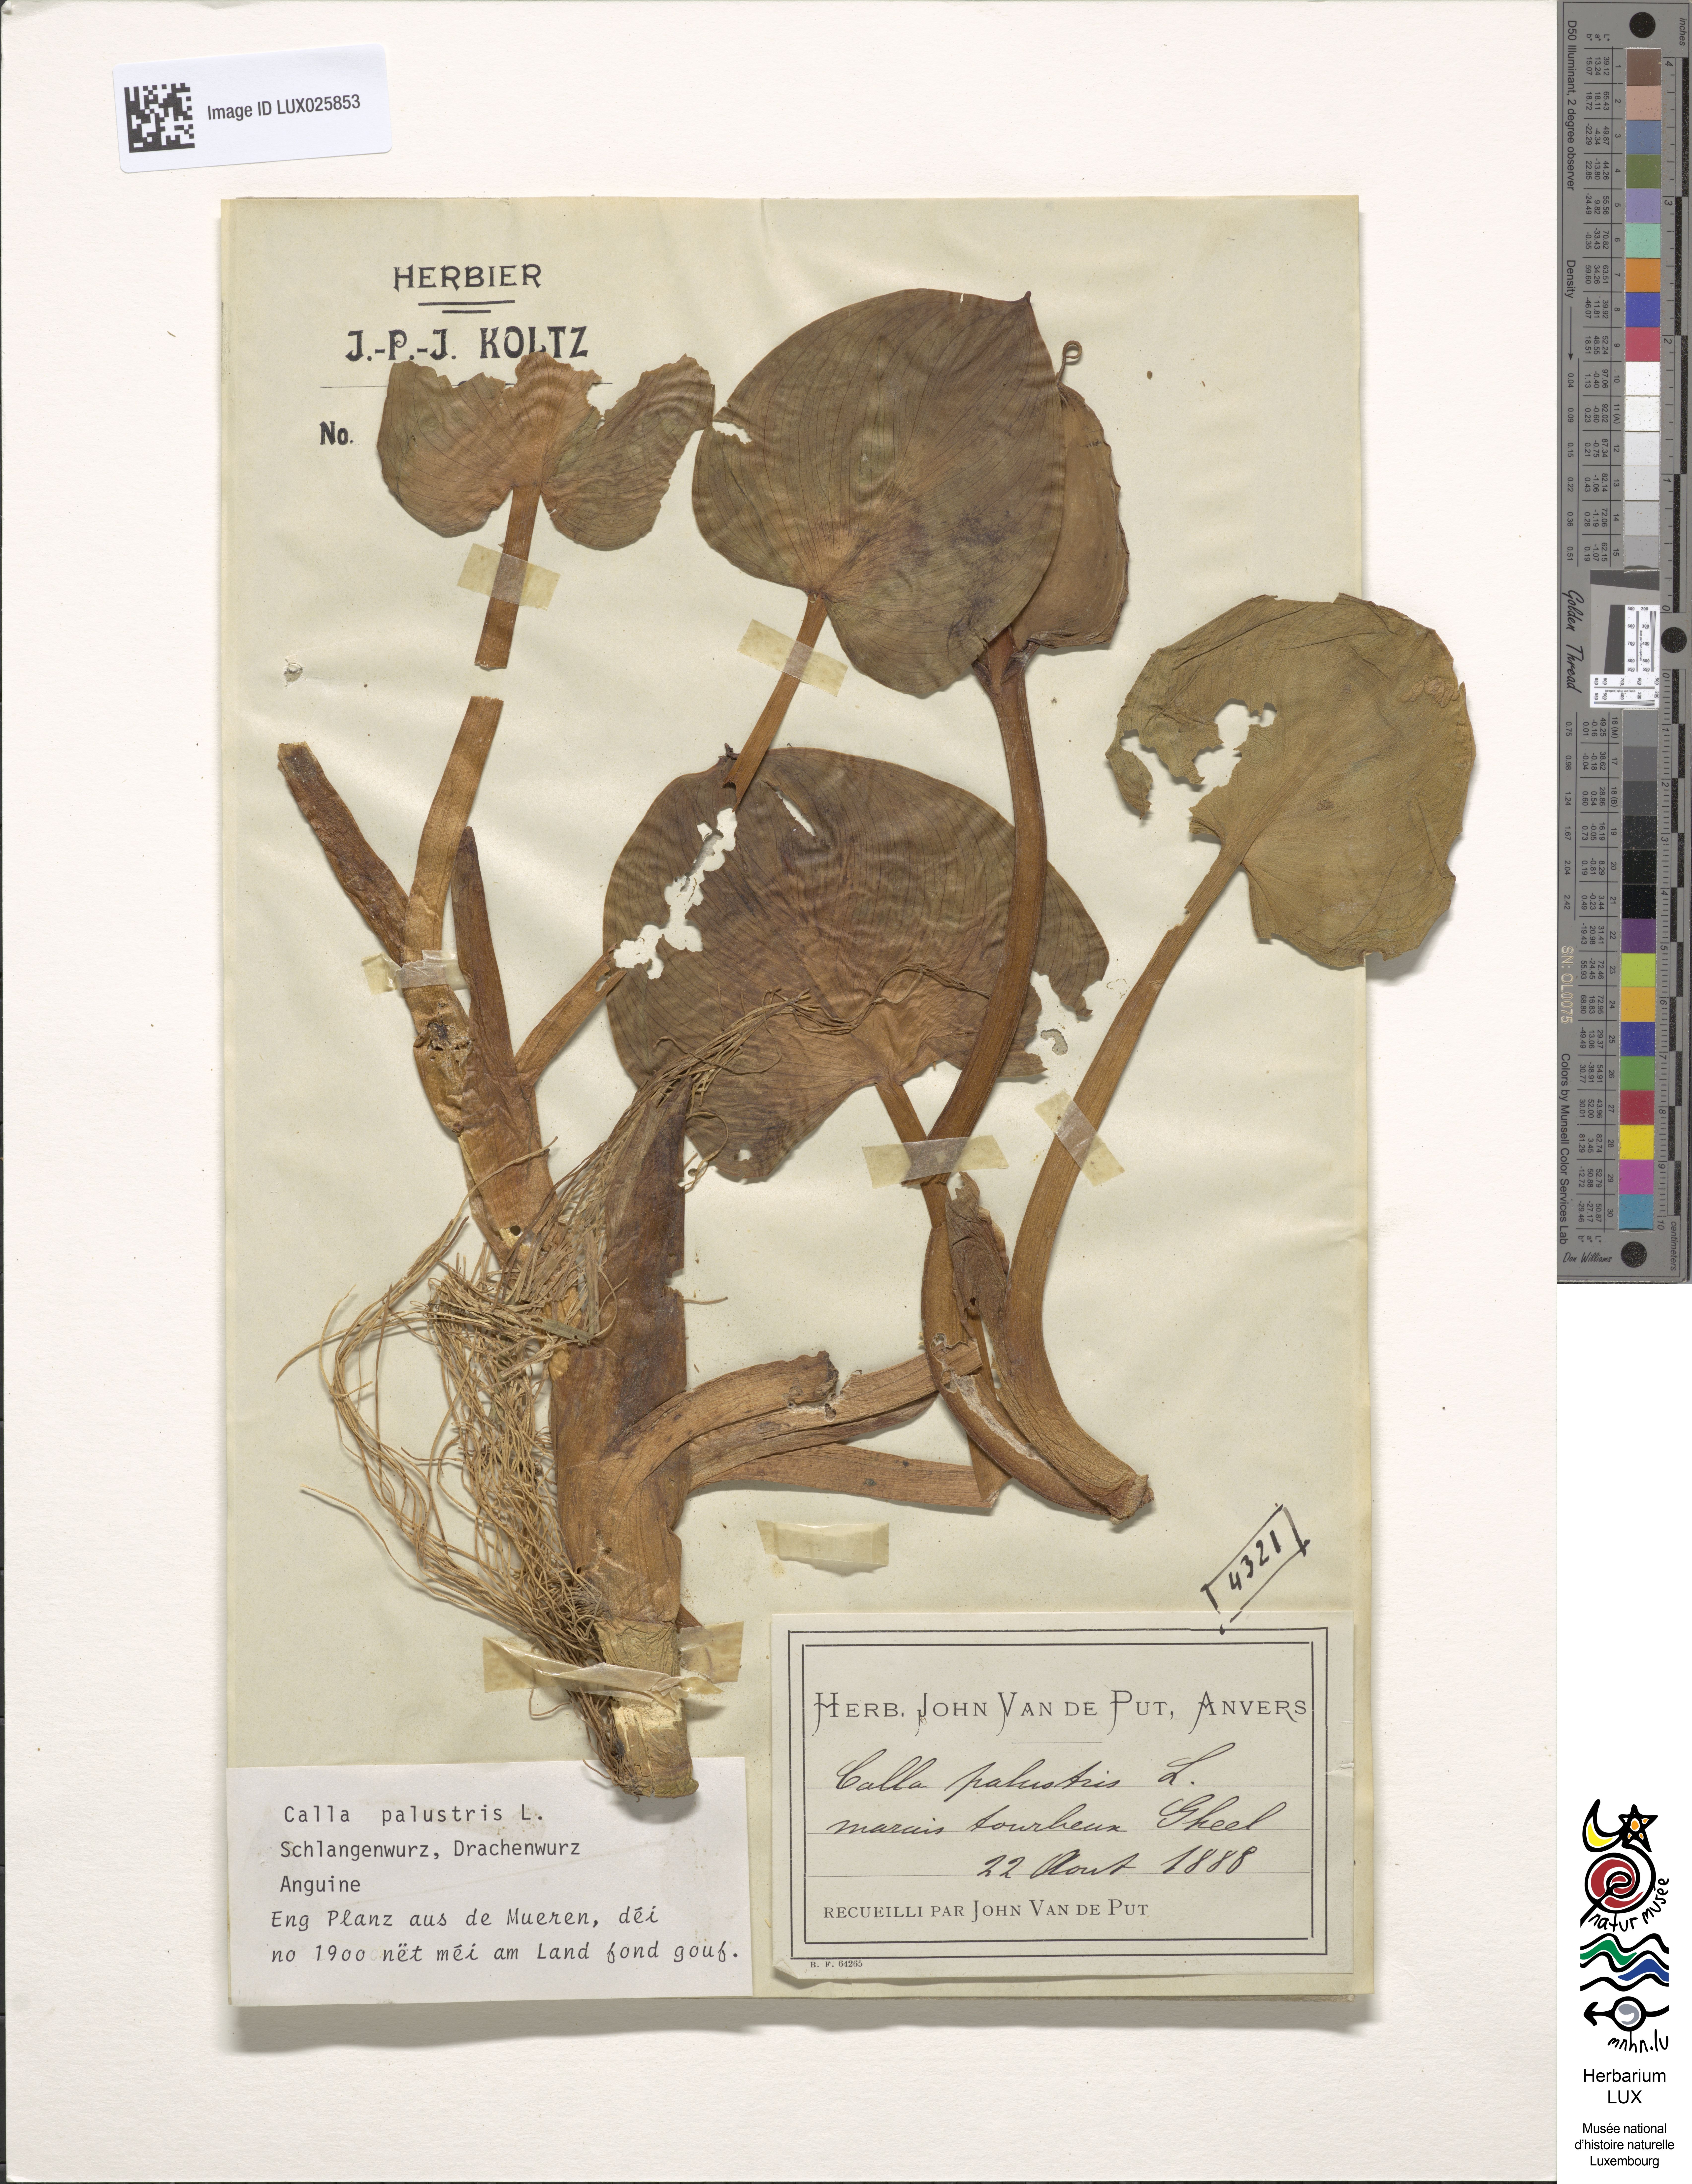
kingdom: Plantae
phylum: Tracheophyta
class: Liliopsida
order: Alismatales
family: Araceae
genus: Calla
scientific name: Calla palustris
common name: Bog arum
